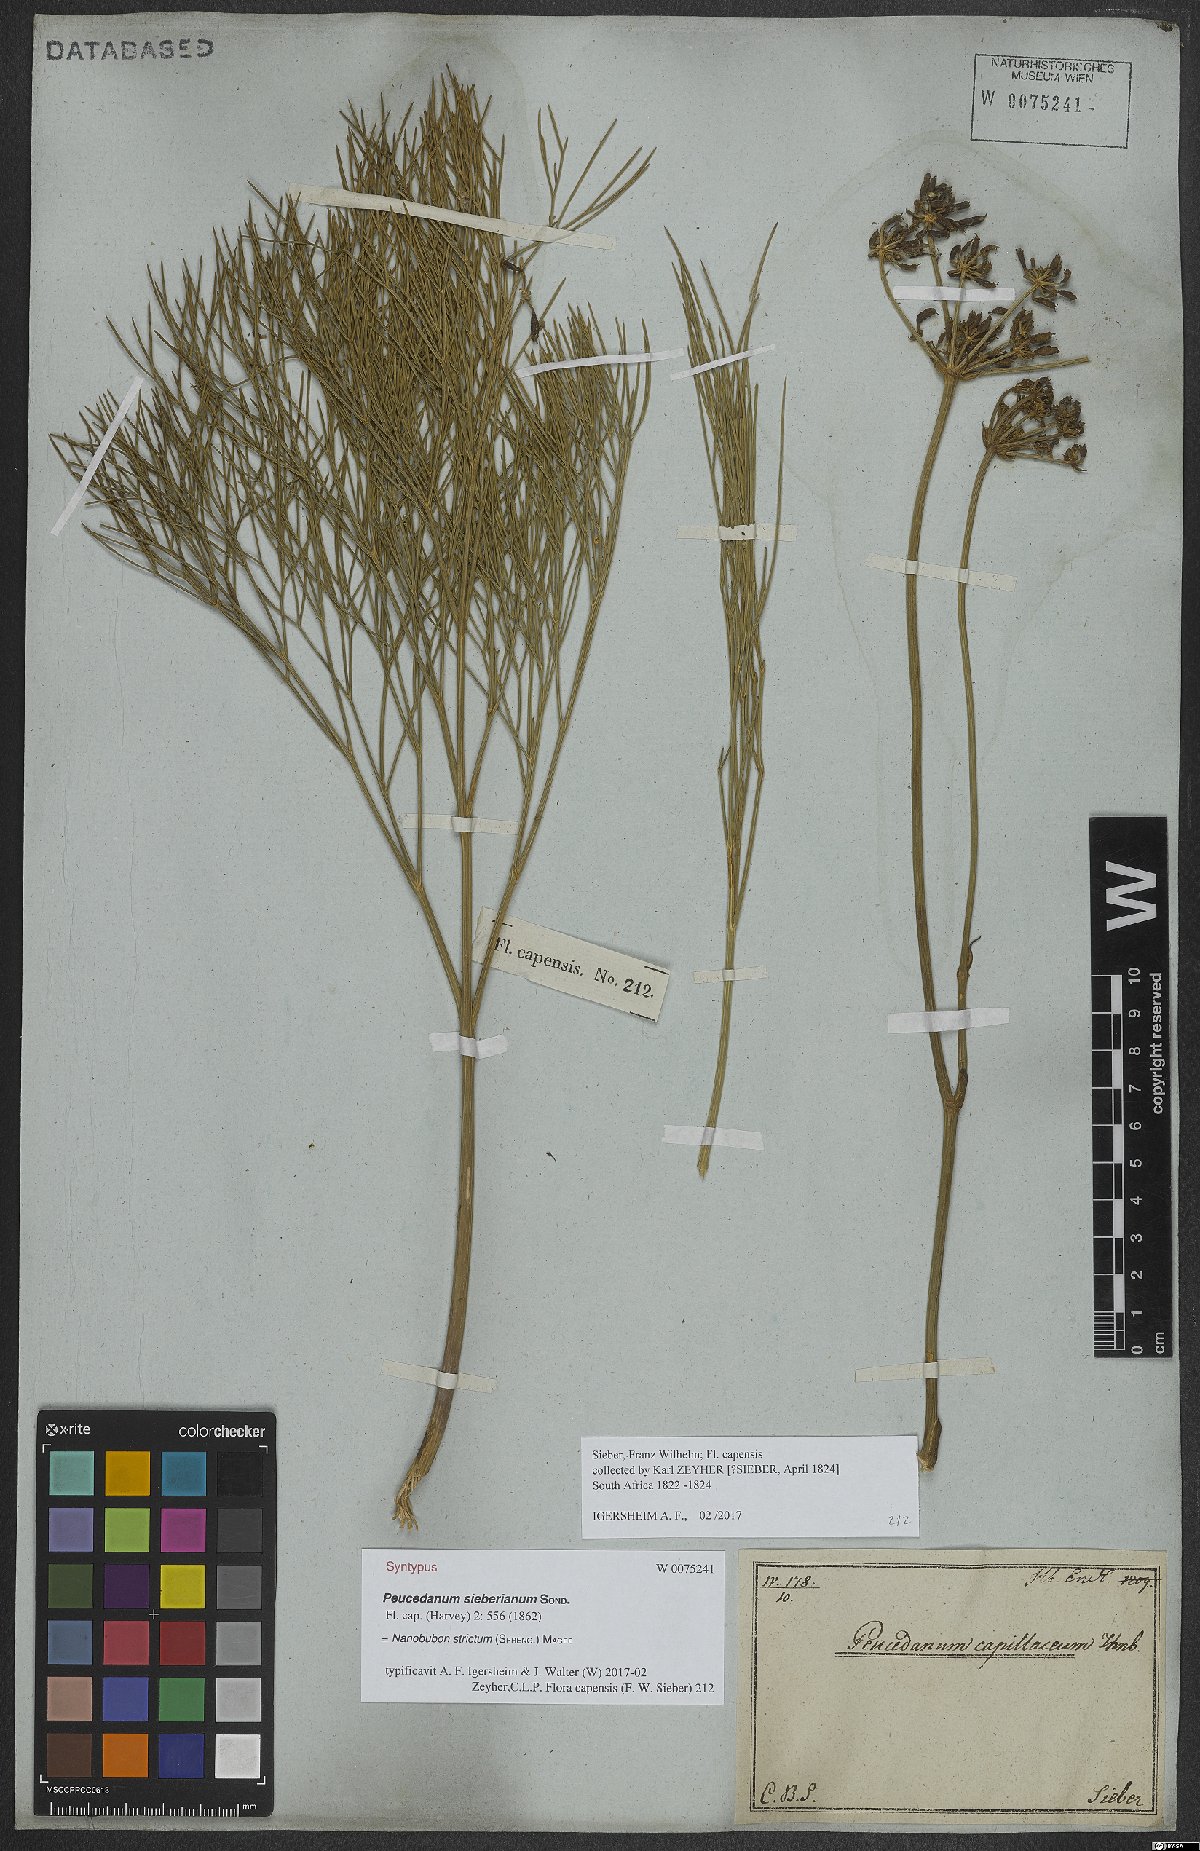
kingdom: Plantae
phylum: Tracheophyta
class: Magnoliopsida
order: Apiales
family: Apiaceae
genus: Nanobubon
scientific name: Nanobubon strictum
